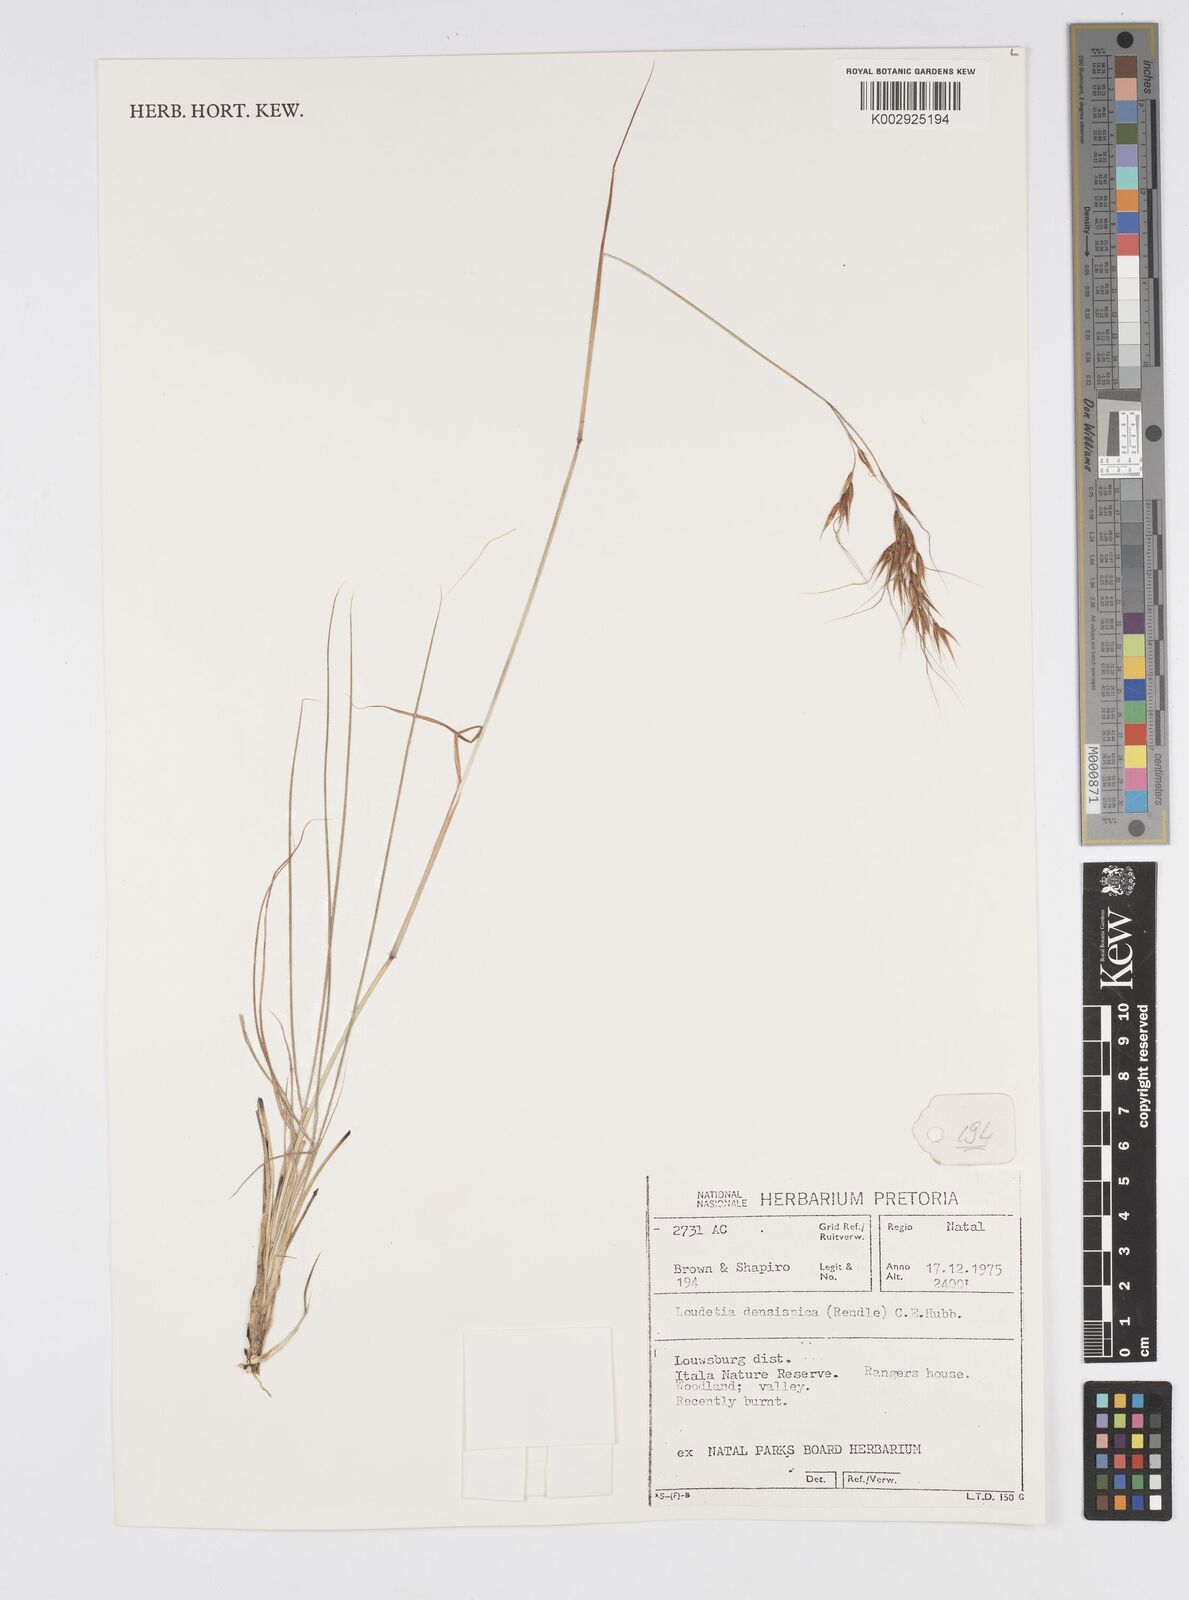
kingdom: Plantae
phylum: Tracheophyta
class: Liliopsida
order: Poales
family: Poaceae
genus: Loudetia
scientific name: Loudetia simplex
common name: Common russet grass
